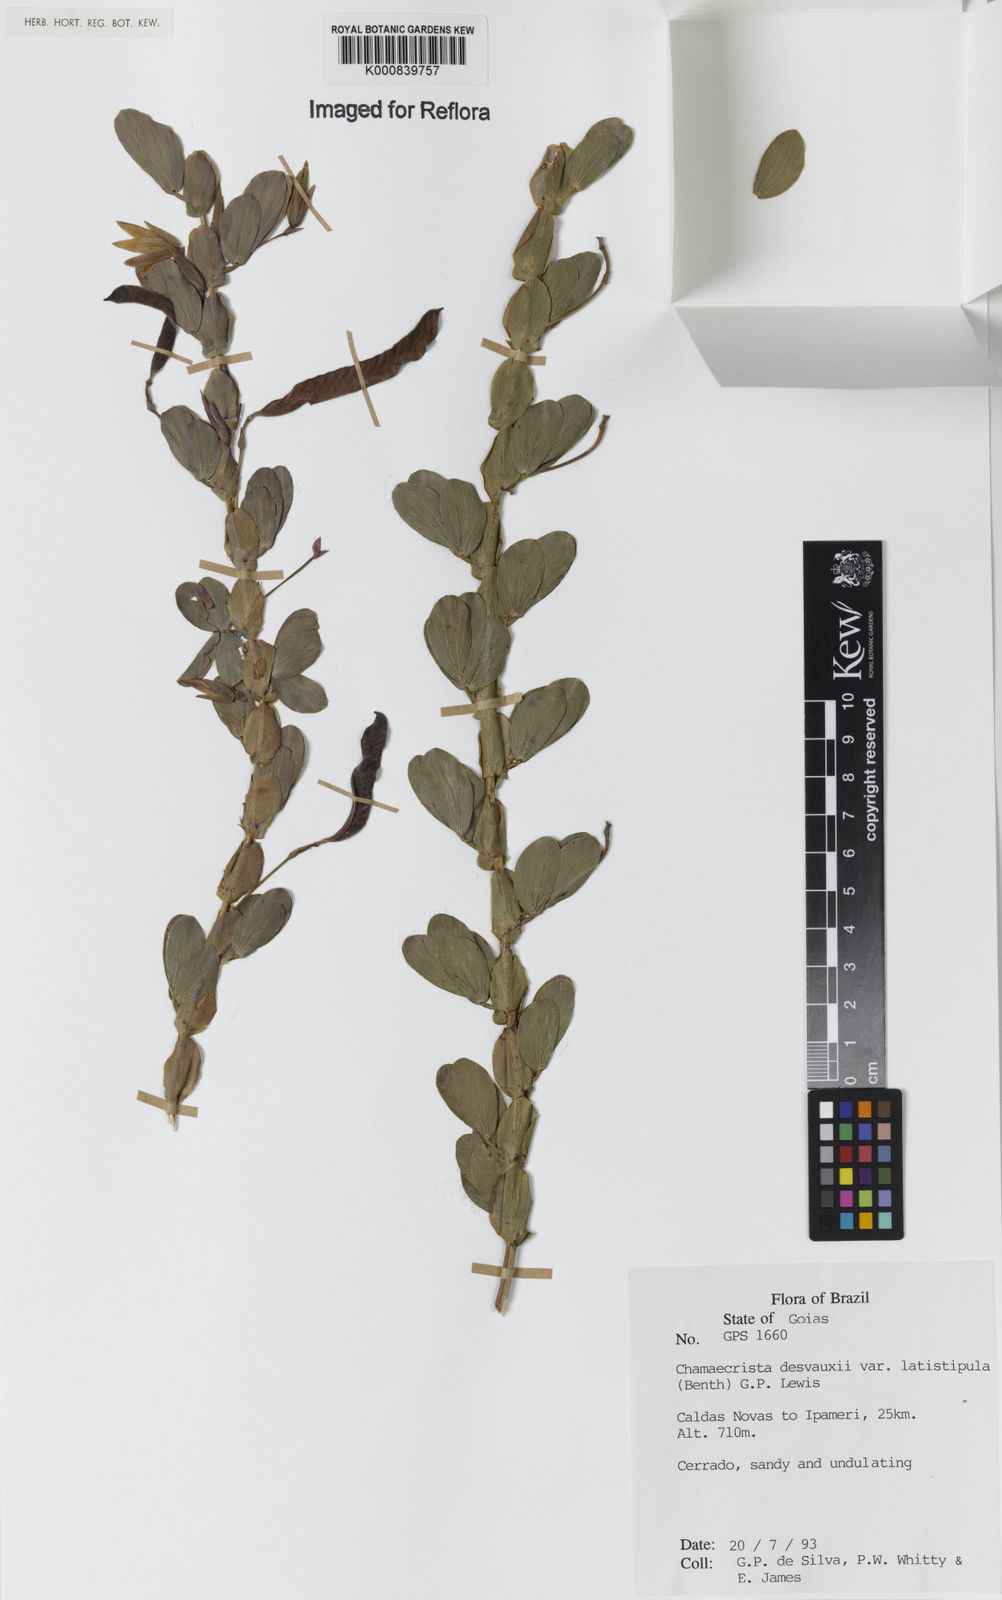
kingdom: Plantae
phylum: Tracheophyta
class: Magnoliopsida
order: Fabales
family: Fabaceae
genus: Chamaecrista
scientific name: Chamaecrista desvauxii
